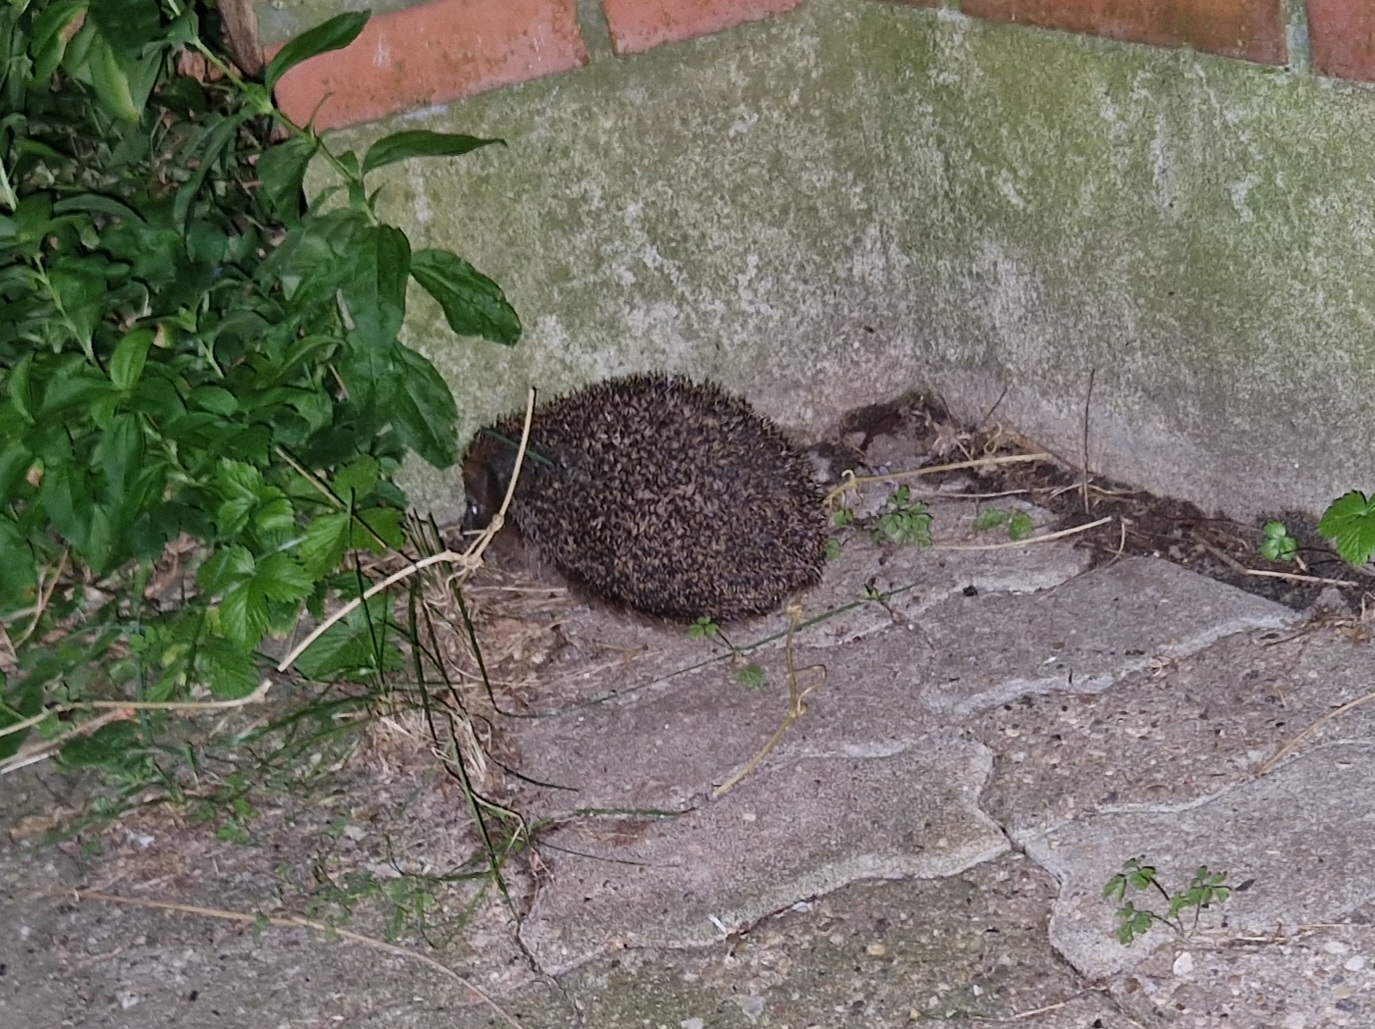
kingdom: Animalia
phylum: Chordata
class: Mammalia
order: Erinaceomorpha
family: Erinaceidae
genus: Erinaceus
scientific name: Erinaceus europaeus
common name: Pindsvin
